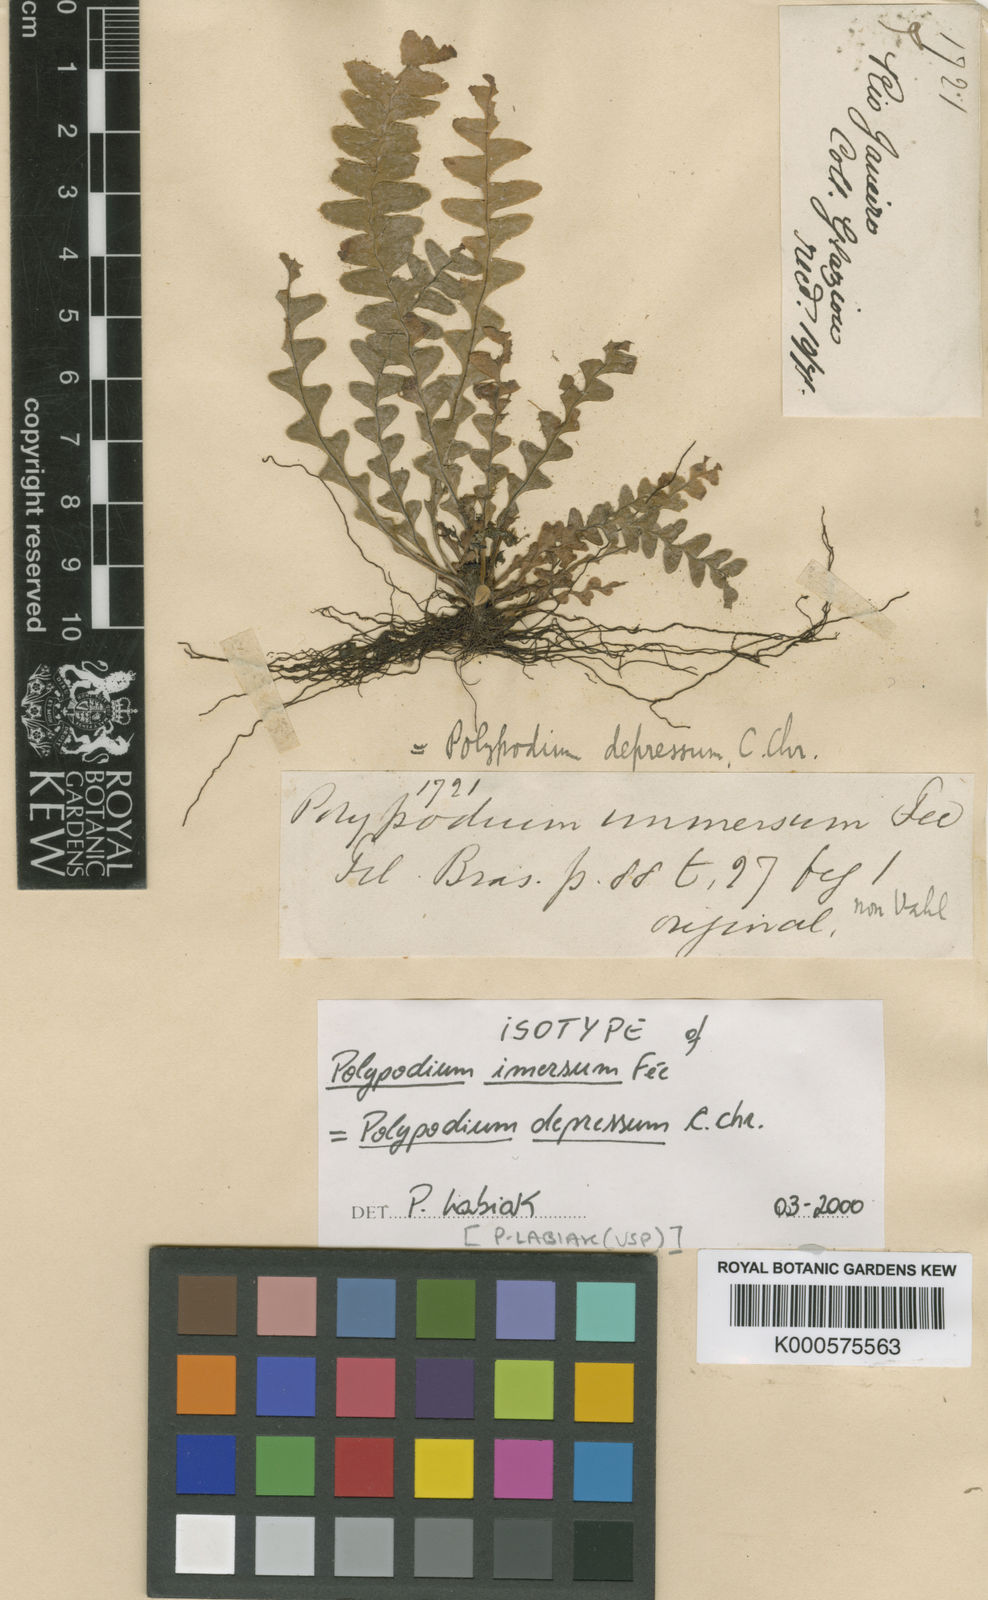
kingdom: Plantae
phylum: Tracheophyta
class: Polypodiopsida
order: Polypodiales
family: Polypodiaceae
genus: Lellingeria
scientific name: Lellingeria depressa
